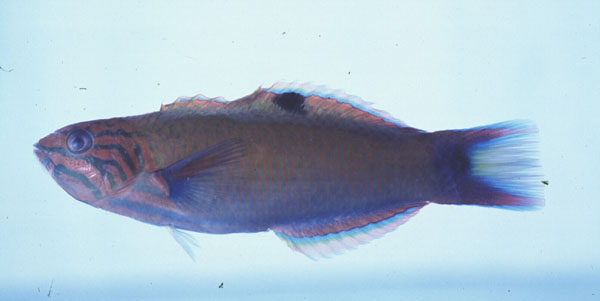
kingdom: Animalia
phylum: Chordata
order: Perciformes
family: Labridae
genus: Thalassoma
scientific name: Thalassoma lunare
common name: Blue wrasse
